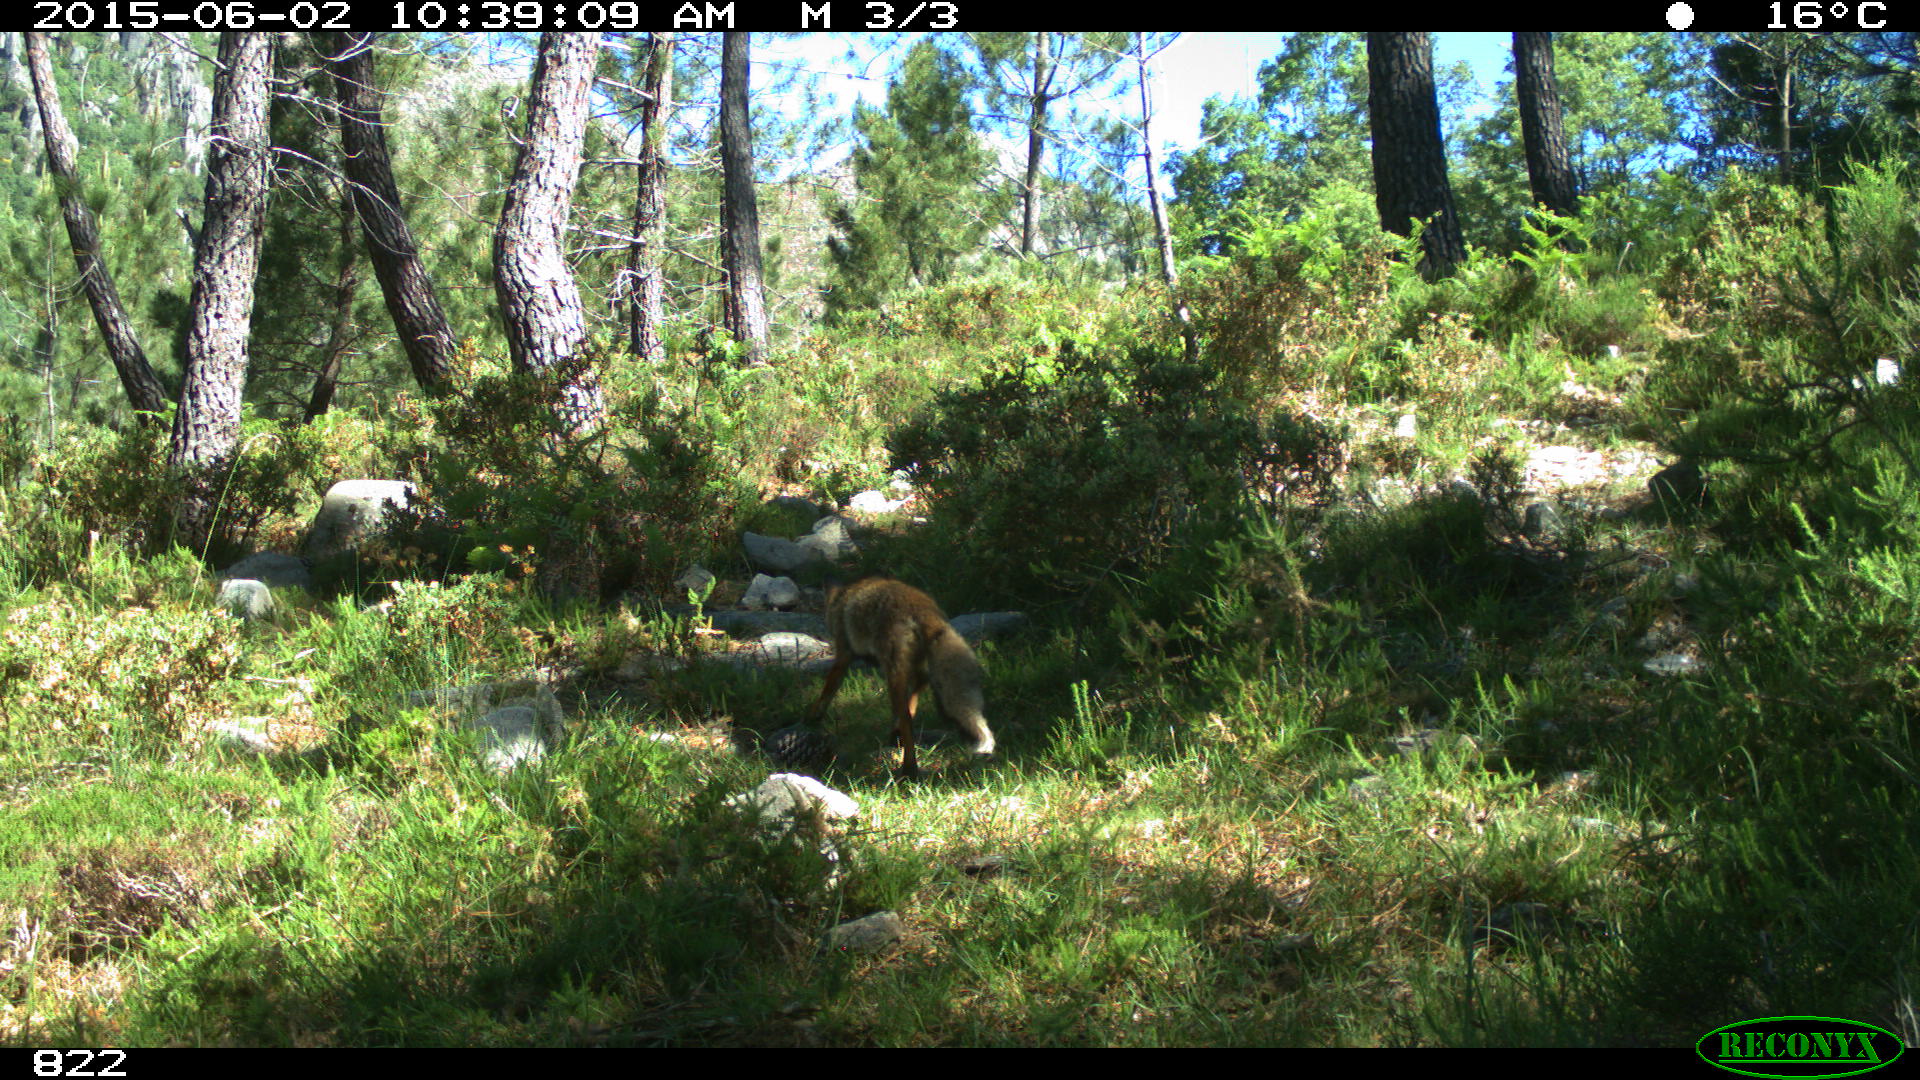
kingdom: Animalia
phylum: Chordata
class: Mammalia
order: Carnivora
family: Canidae
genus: Vulpes
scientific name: Vulpes vulpes
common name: Red fox
